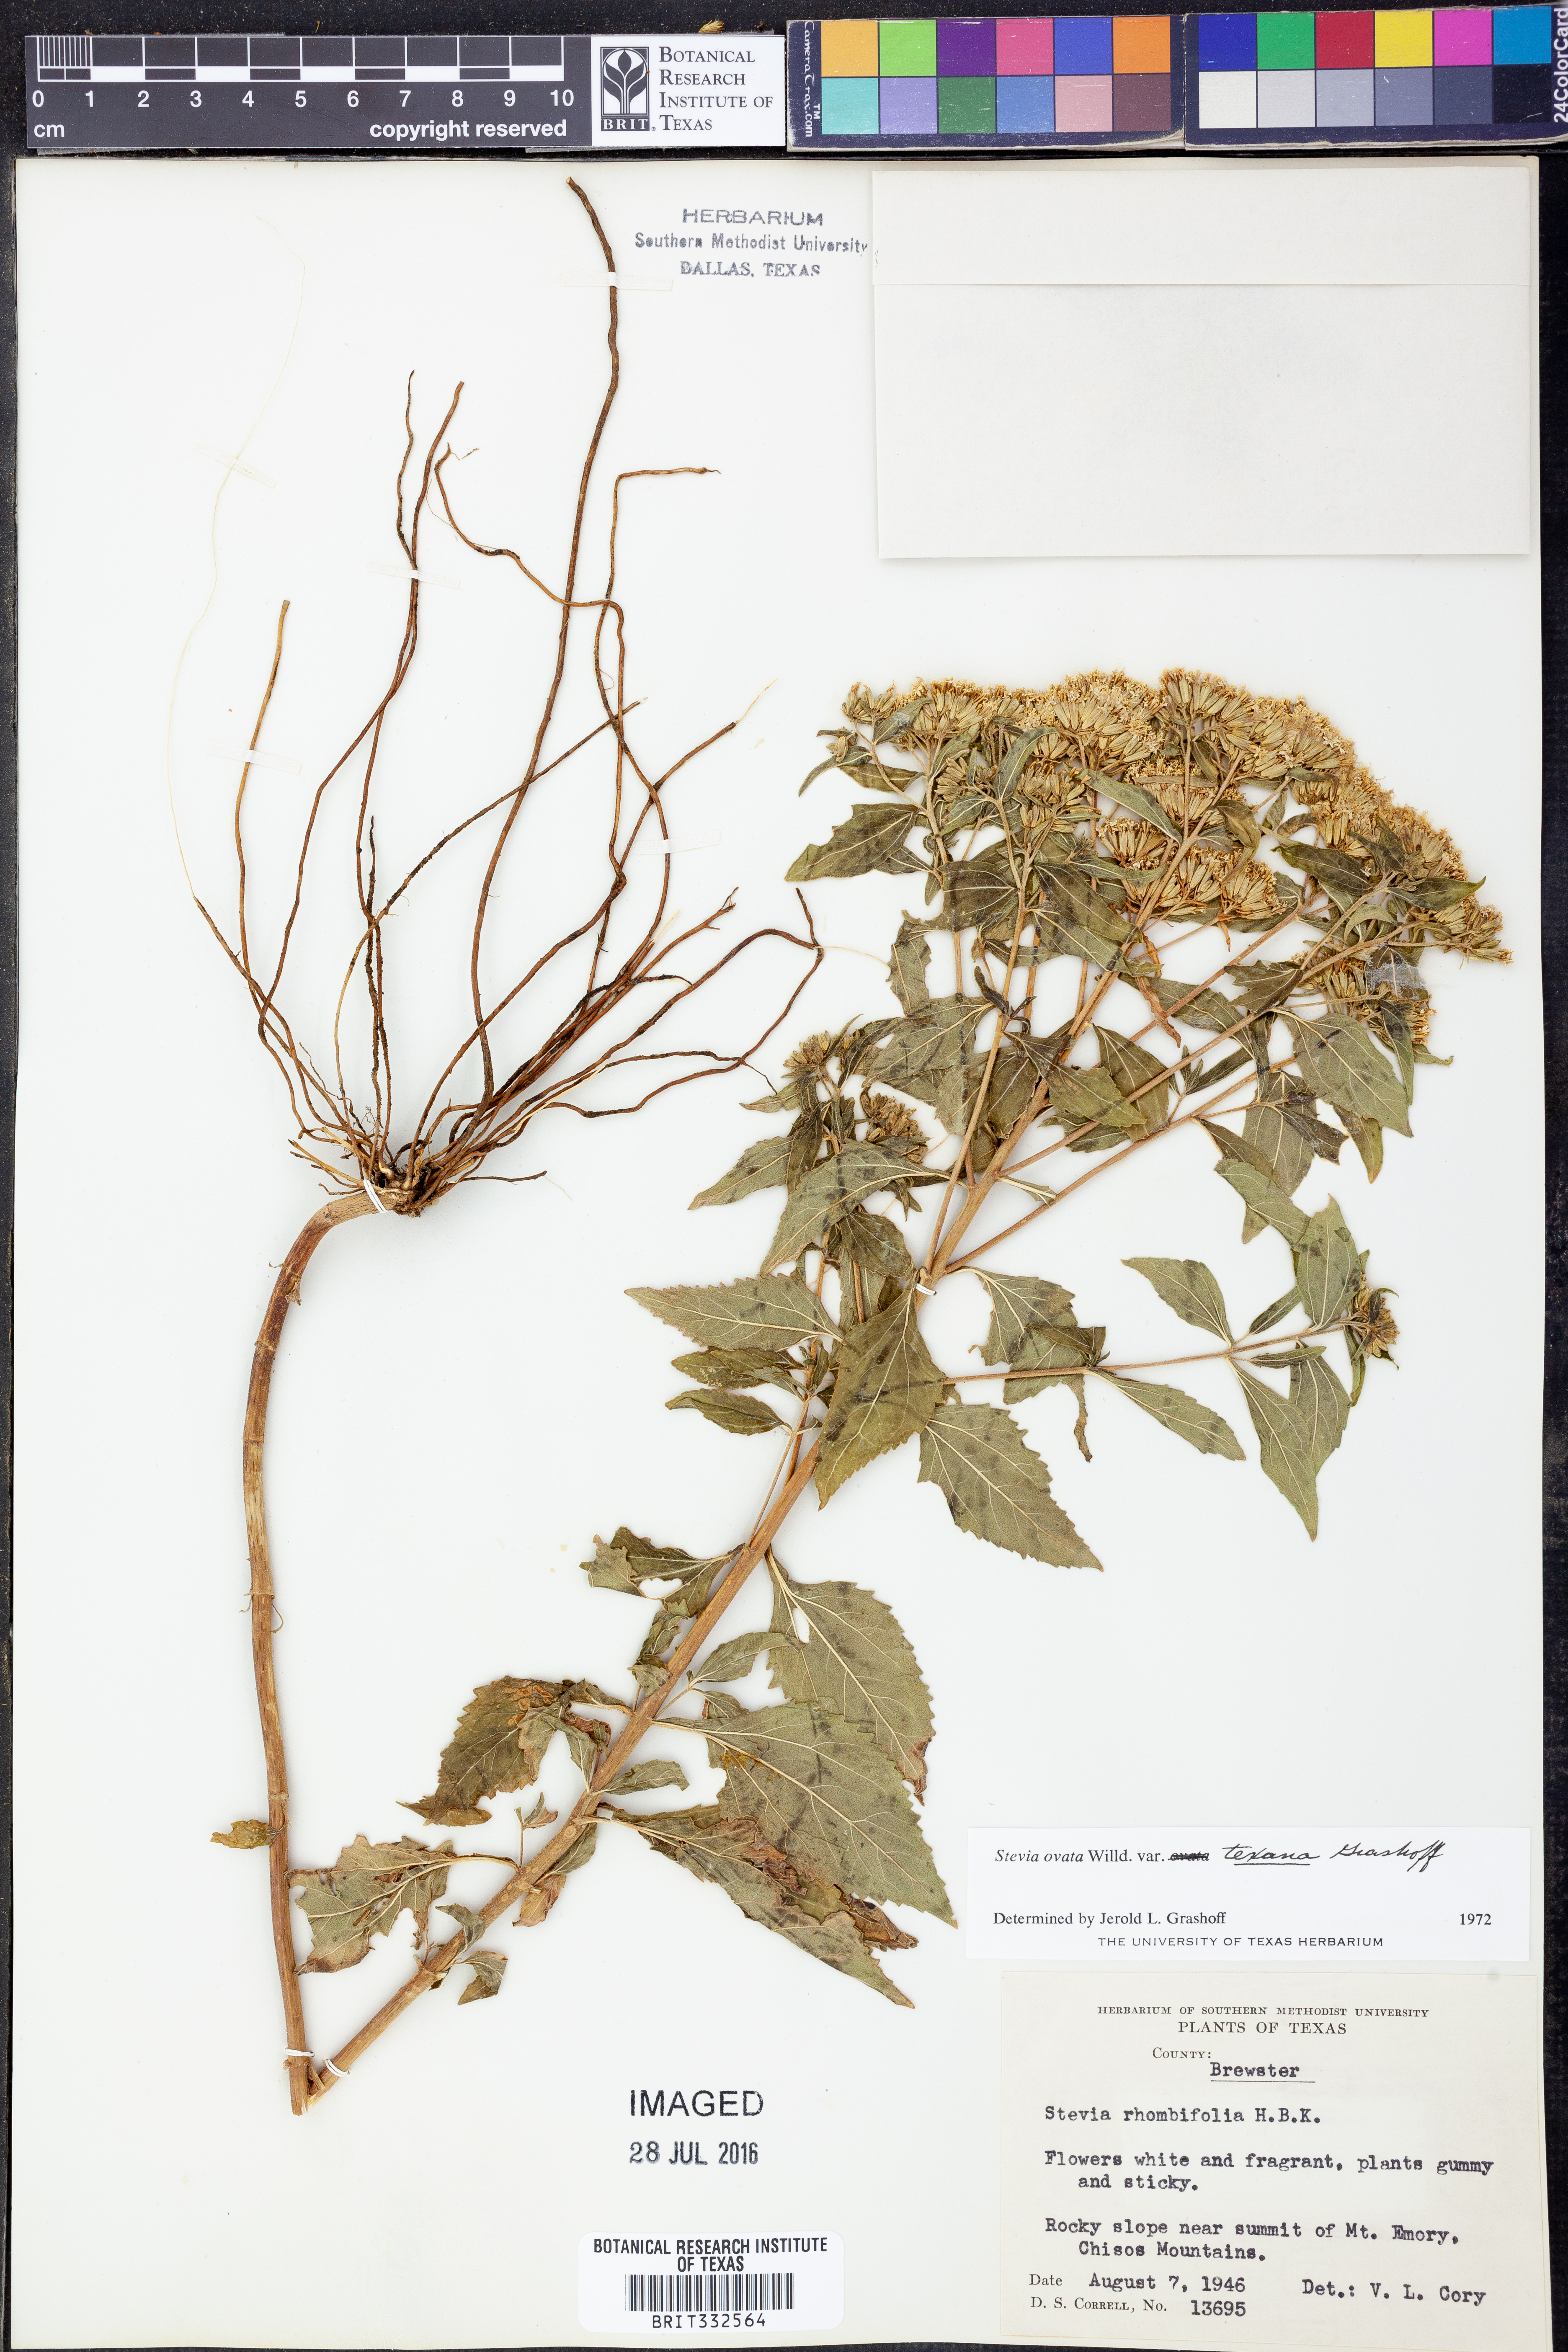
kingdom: Plantae
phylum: Tracheophyta
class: Magnoliopsida
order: Asterales
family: Asteraceae
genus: Stevia
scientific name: Stevia ovata
